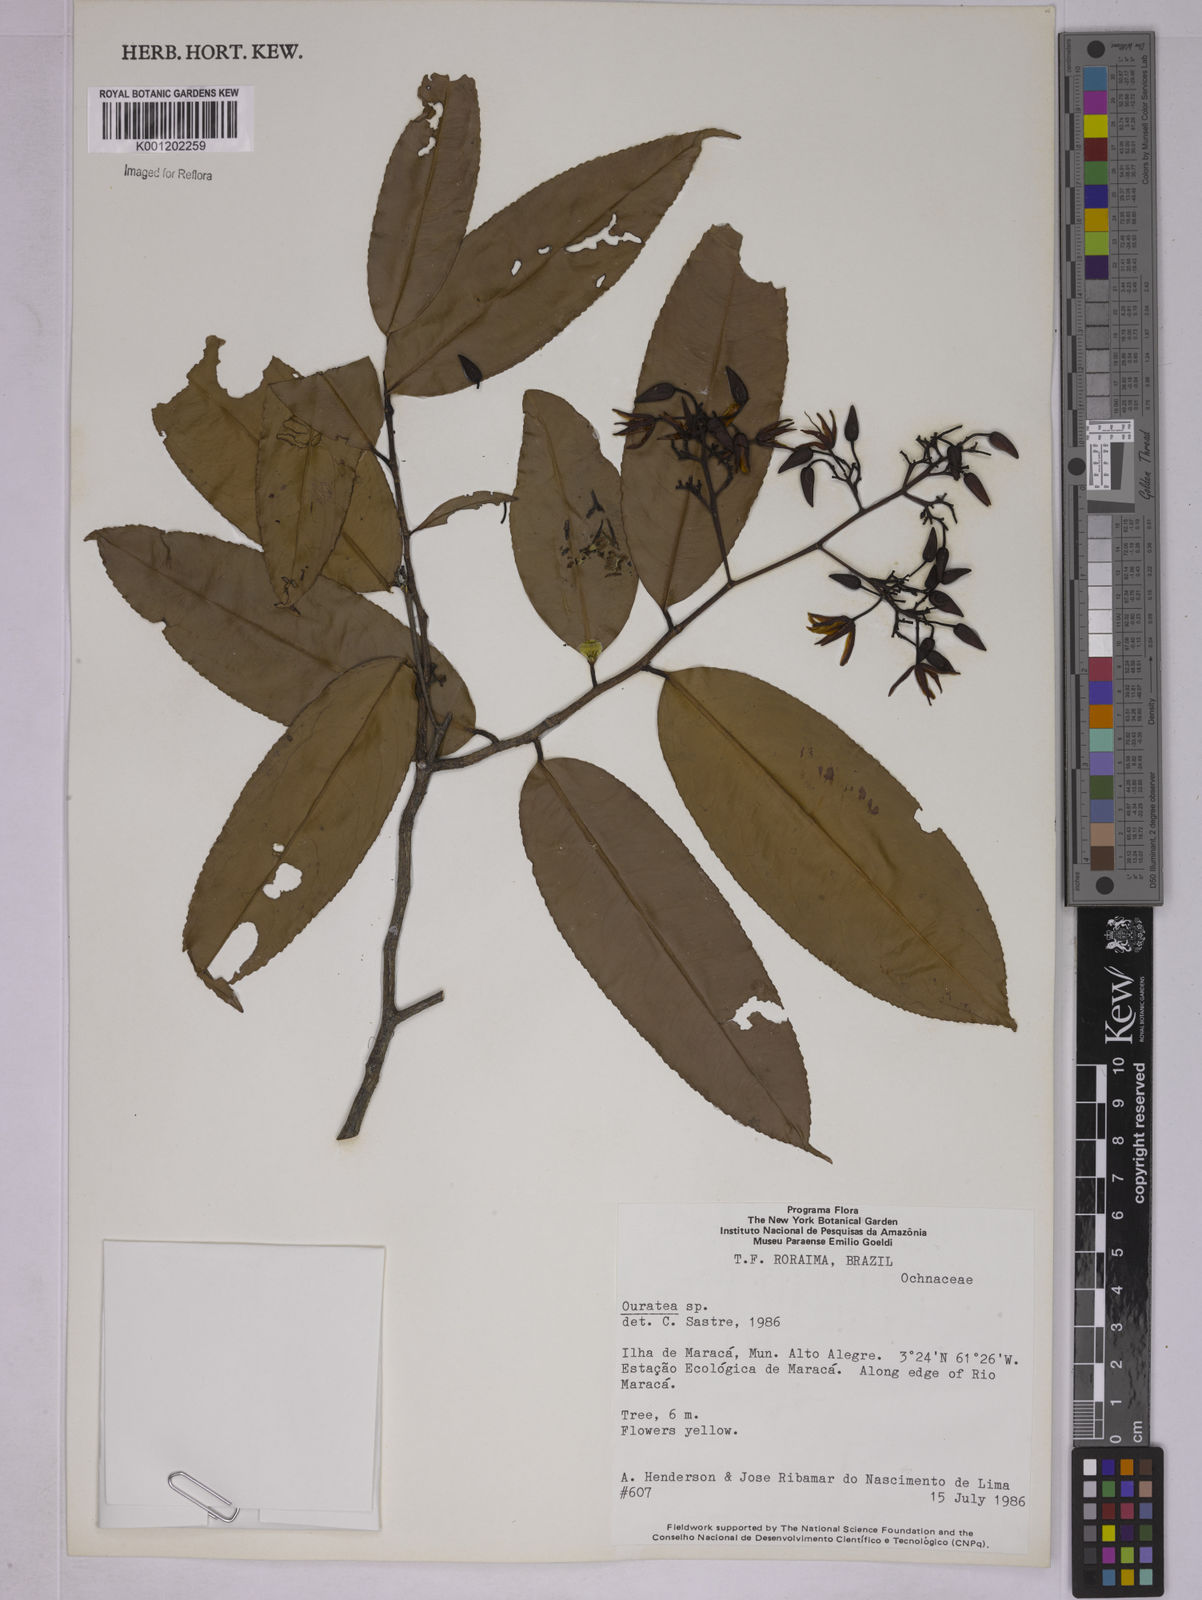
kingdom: Plantae
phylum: Tracheophyta
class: Magnoliopsida
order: Malpighiales
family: Ochnaceae
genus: Ouratea
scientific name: Ouratea
